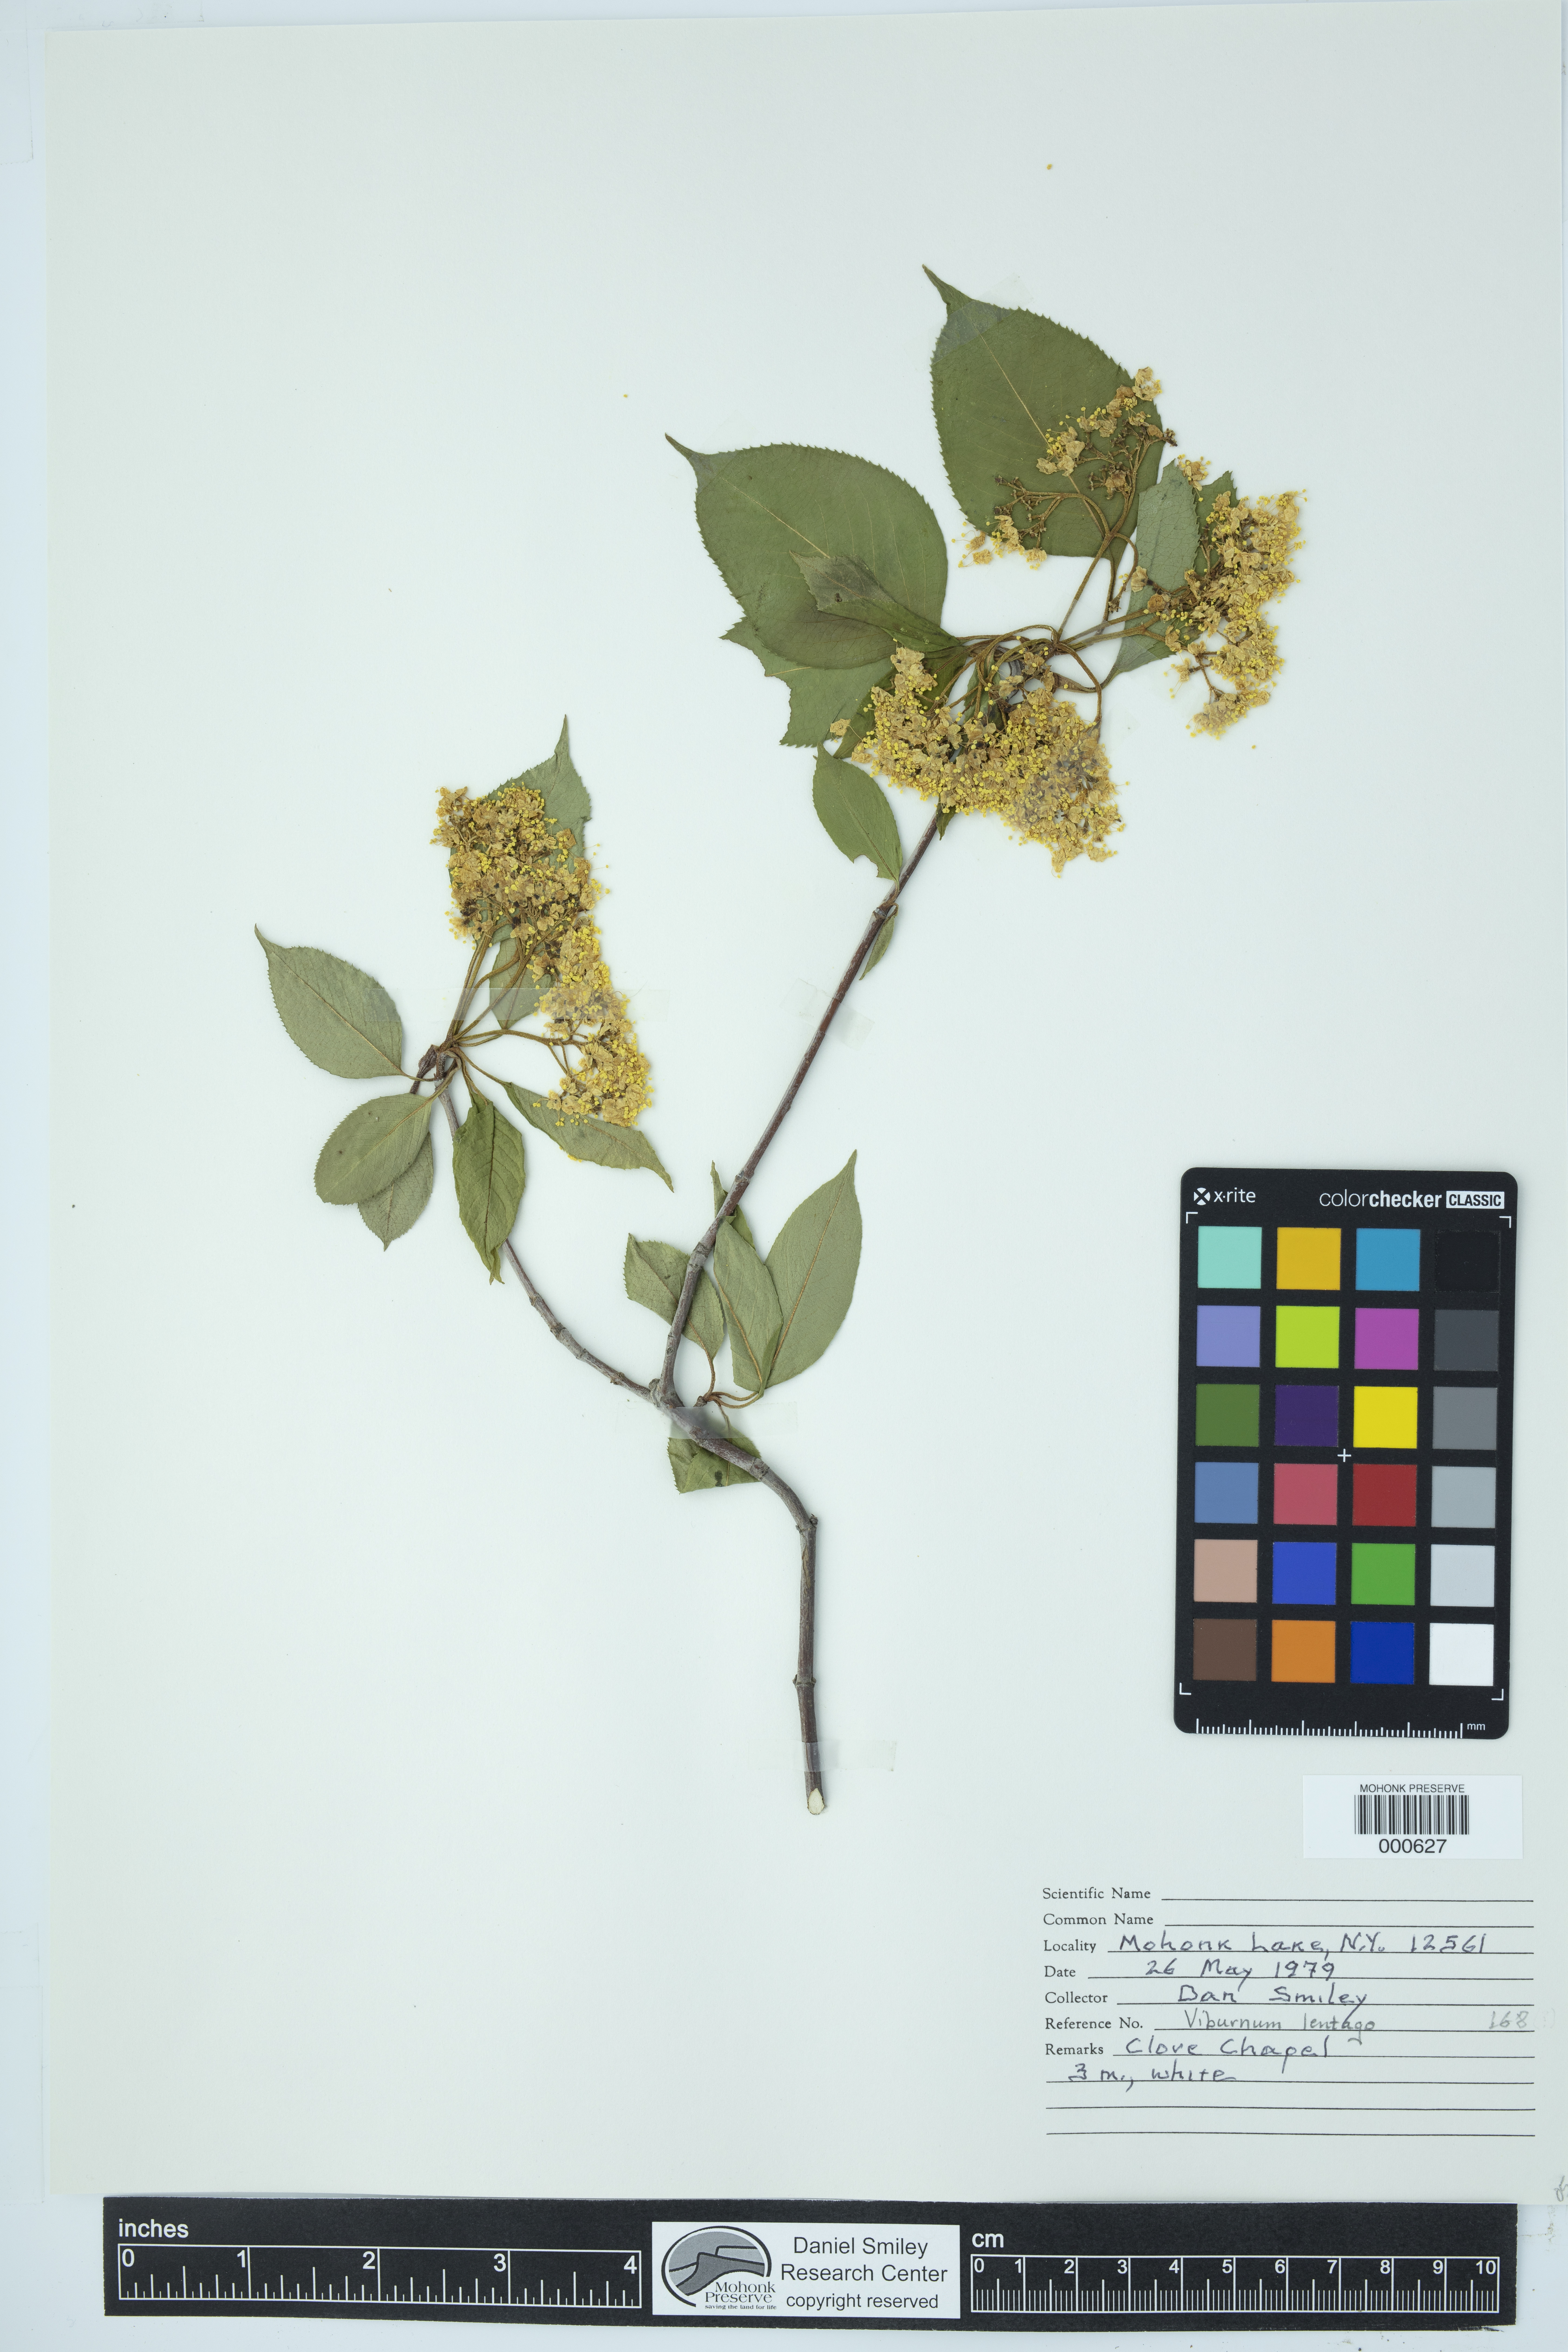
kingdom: Plantae
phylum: Tracheophyta
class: Magnoliopsida
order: Dipsacales
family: Viburnaceae
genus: Viburnum
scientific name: Viburnum lentago
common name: Black haw
